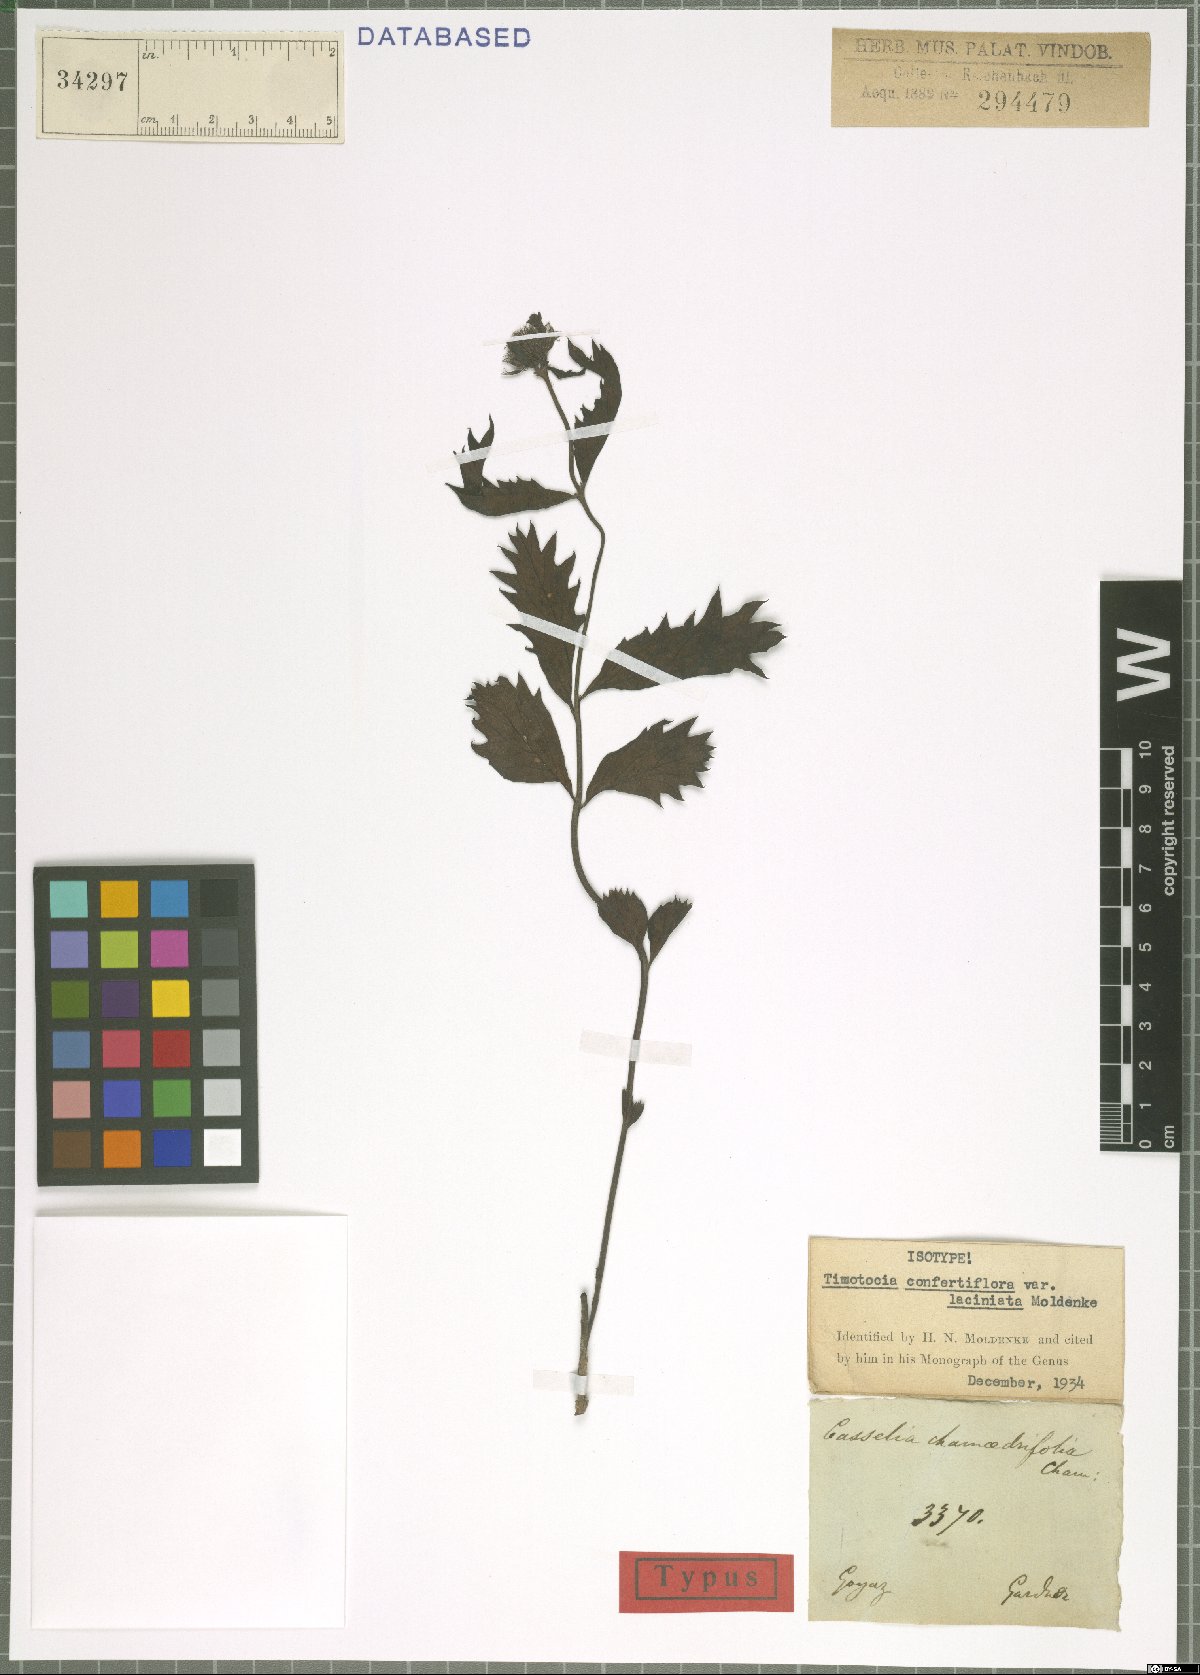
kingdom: Plantae
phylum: Tracheophyta
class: Magnoliopsida
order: Lamiales
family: Verbenaceae
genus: Casselia
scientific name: Casselia confertiflora
